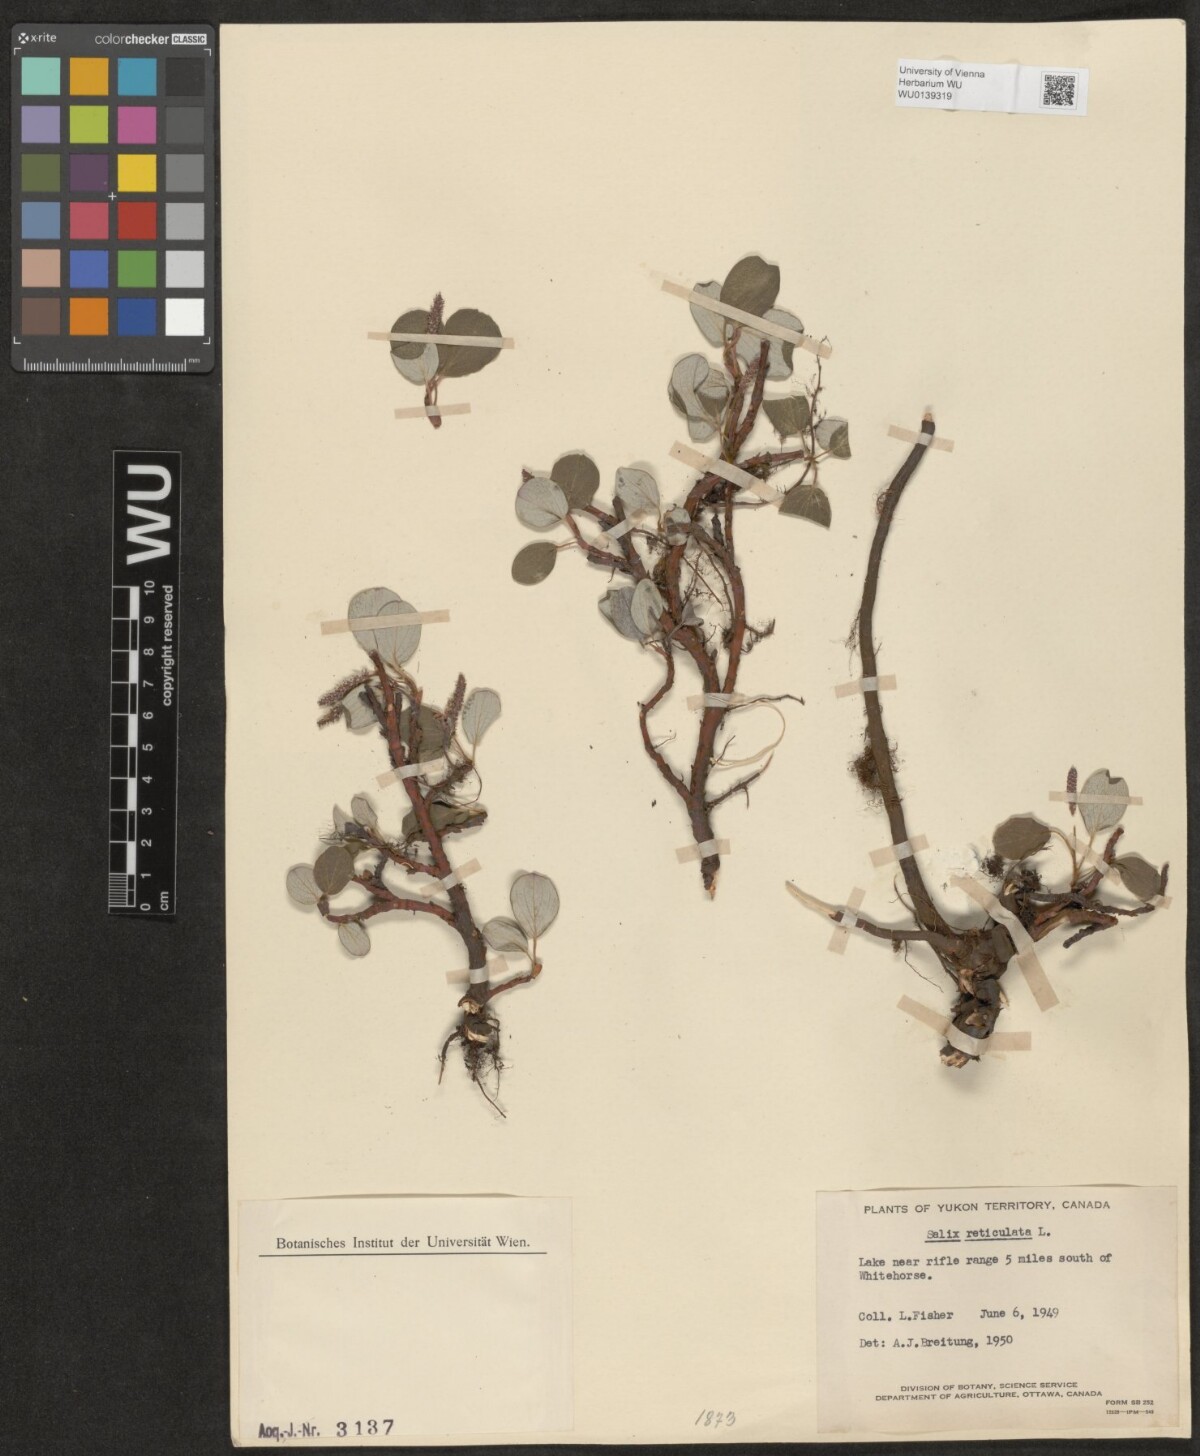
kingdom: Plantae
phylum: Tracheophyta
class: Magnoliopsida
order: Malpighiales
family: Salicaceae
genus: Salix
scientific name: Salix reticulata
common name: Net-leaved willow
